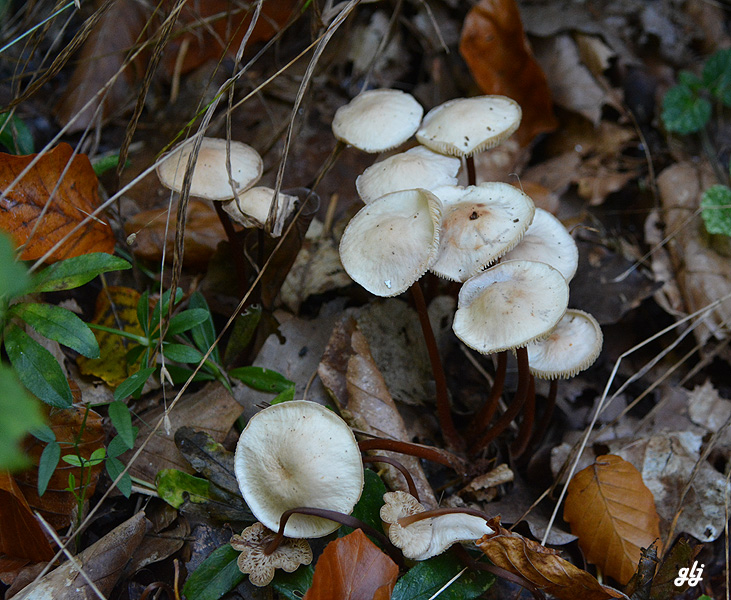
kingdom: Fungi
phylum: Basidiomycota
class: Agaricomycetes
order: Agaricales
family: Omphalotaceae
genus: Gymnopus
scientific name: Gymnopus
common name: fladhat
